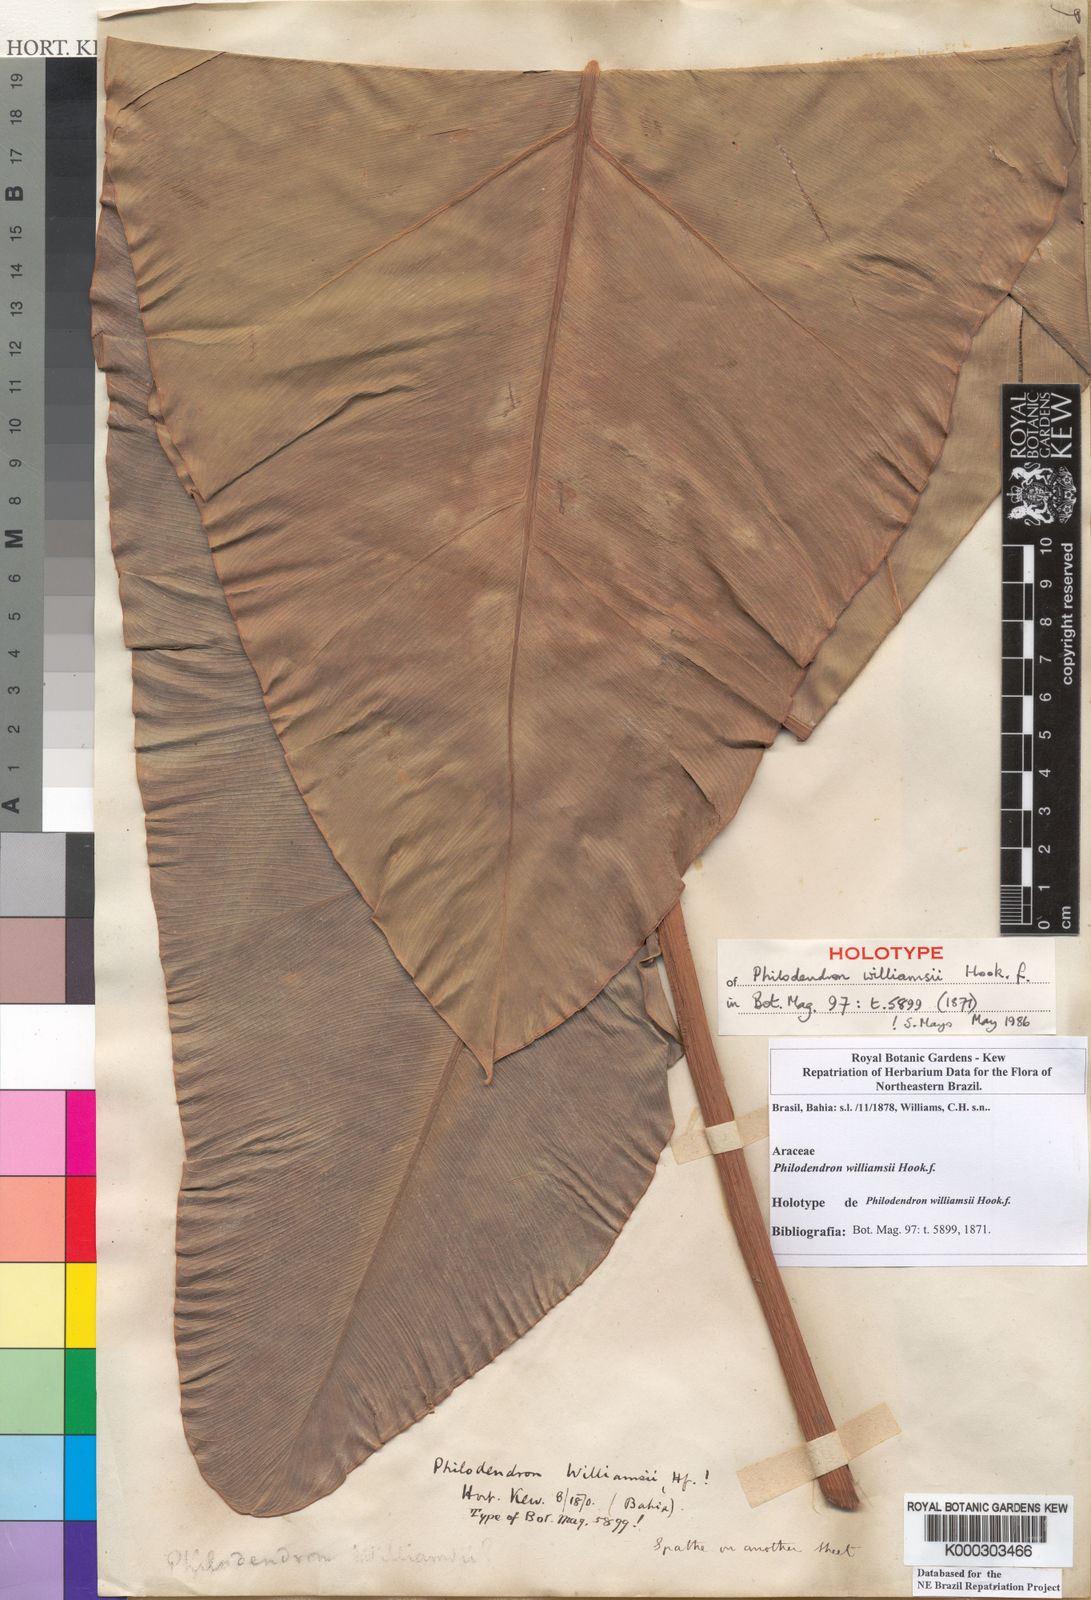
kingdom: Plantae
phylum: Tracheophyta
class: Liliopsida
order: Alismatales
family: Araceae
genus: Thaumatophyllum
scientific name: Thaumatophyllum williamsii
